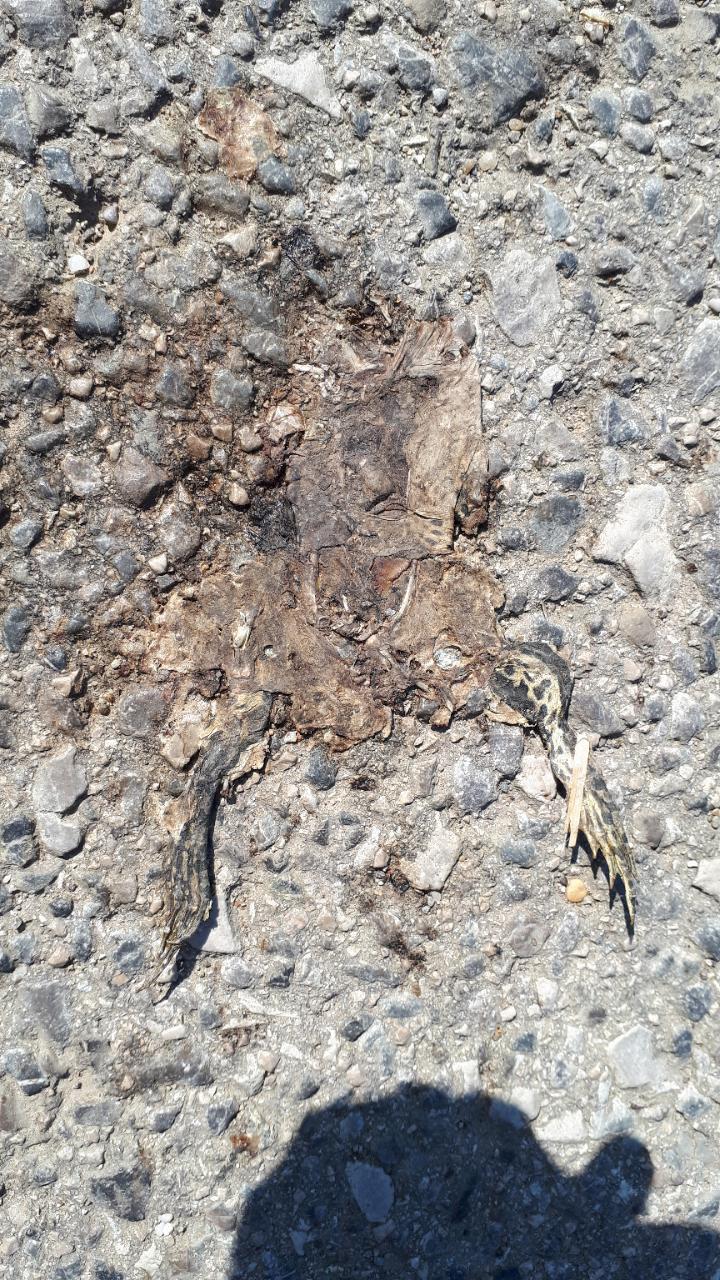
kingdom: Animalia
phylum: Chordata
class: Amphibia
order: Anura
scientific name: Anura
